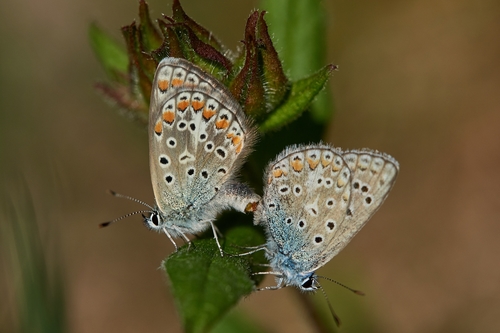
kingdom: Animalia
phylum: Arthropoda
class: Insecta
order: Lepidoptera
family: Lycaenidae
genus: Polyommatus
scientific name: Polyommatus icarus
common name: Common blue
